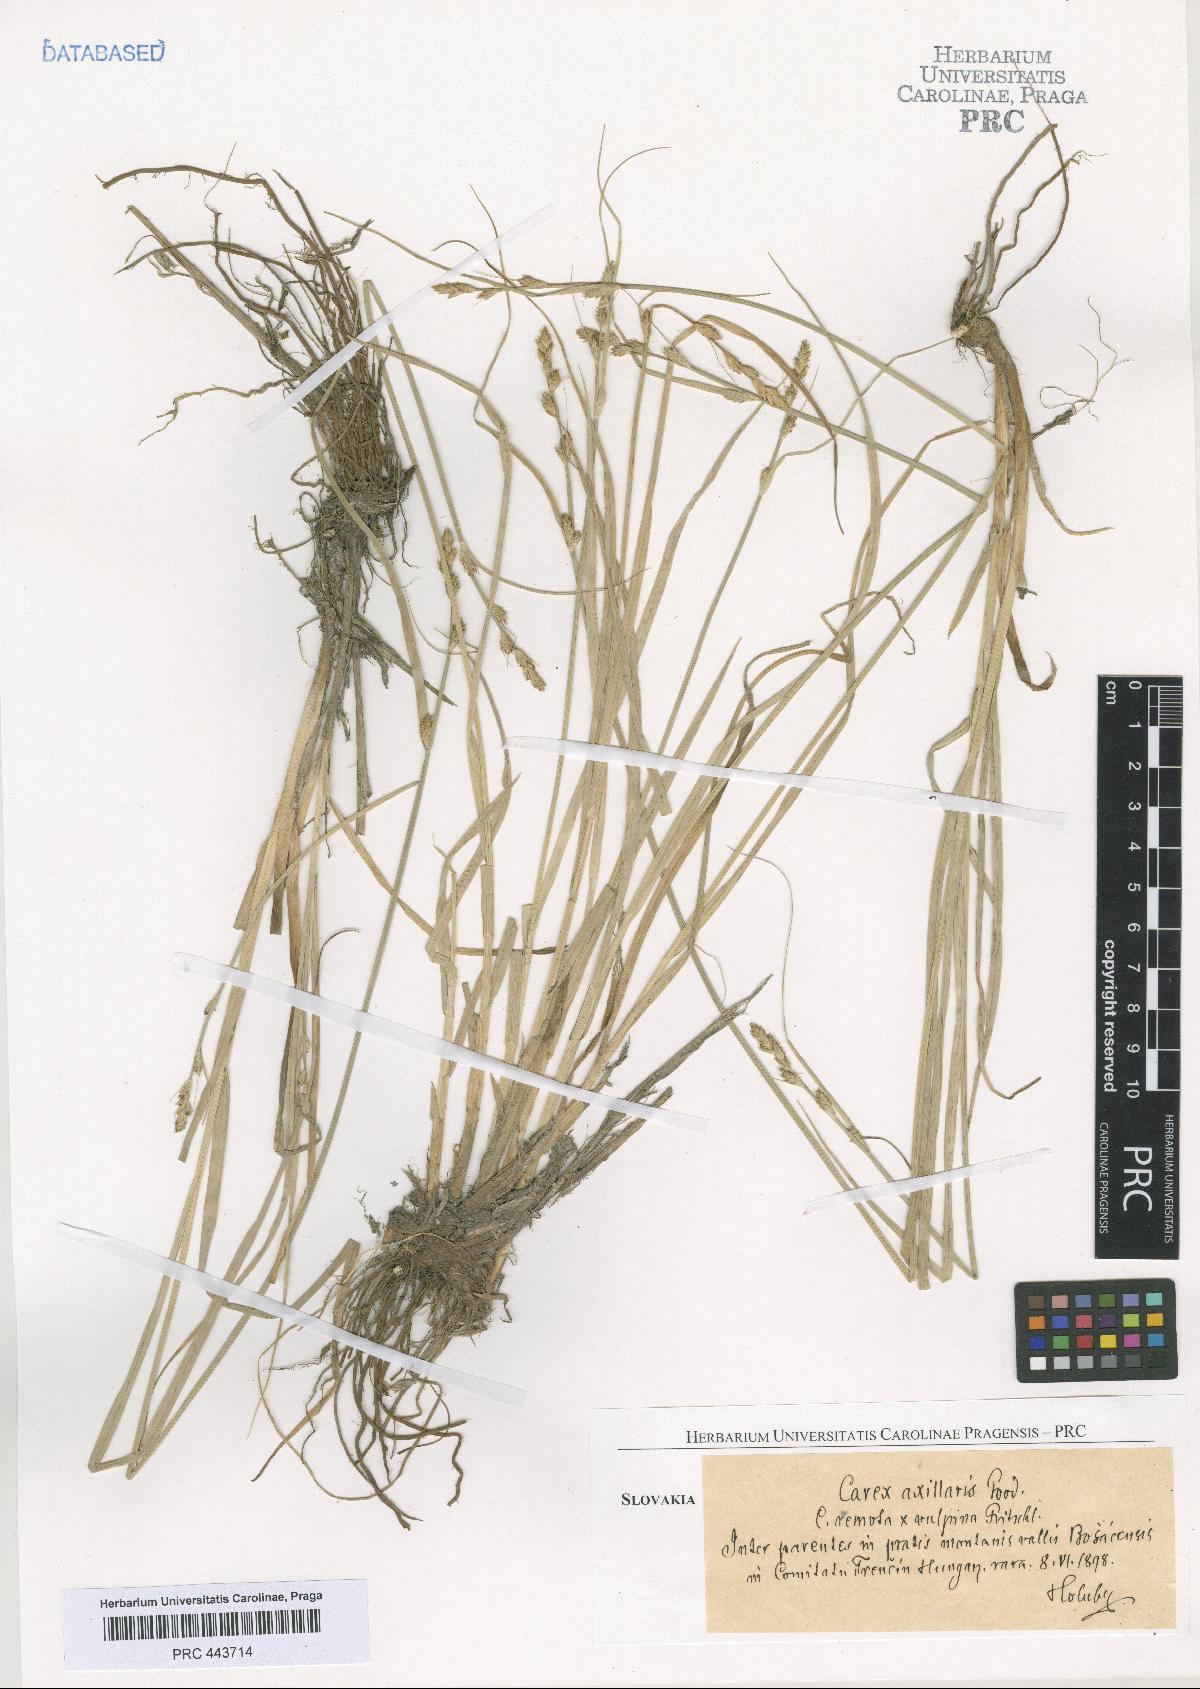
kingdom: Plantae
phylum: Tracheophyta
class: Liliopsida
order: Poales
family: Cyperaceae
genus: Carex
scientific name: Carex pseudoaxillaris
